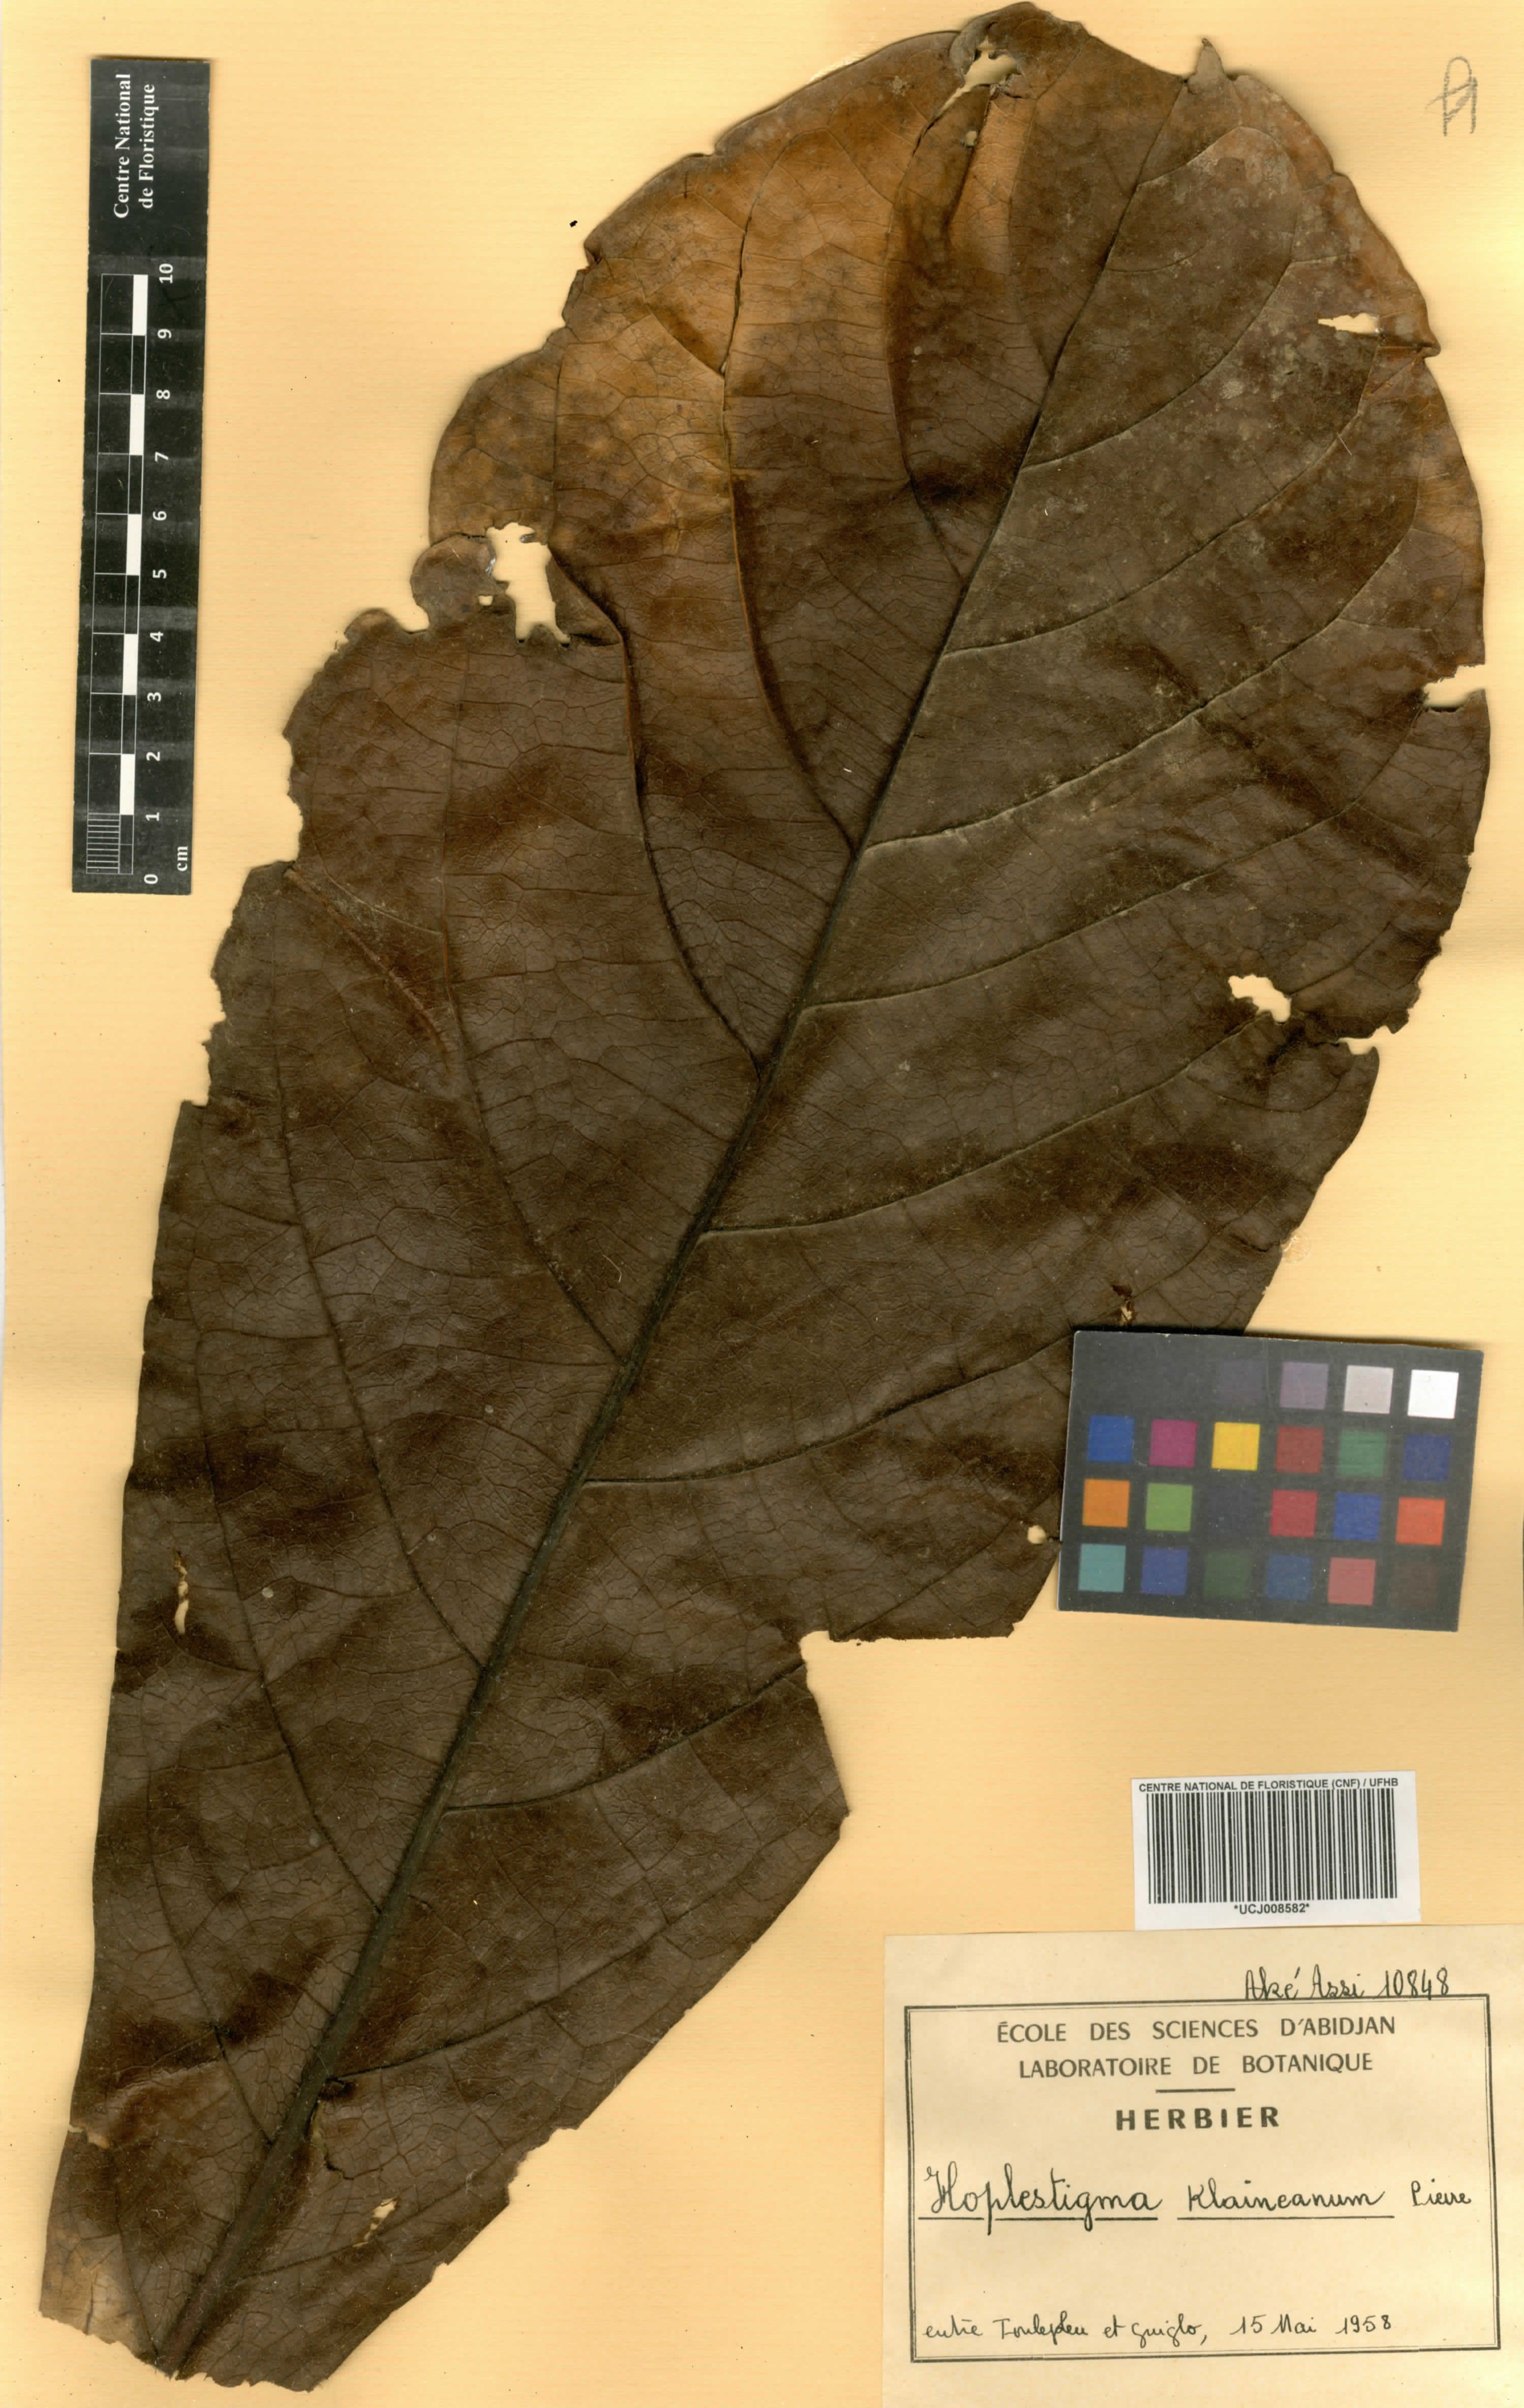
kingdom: Plantae
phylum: Tracheophyta
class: Magnoliopsida
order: Boraginales
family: Hoplestigmataceae
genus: Hoplestigma
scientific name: Hoplestigma klaineanum
